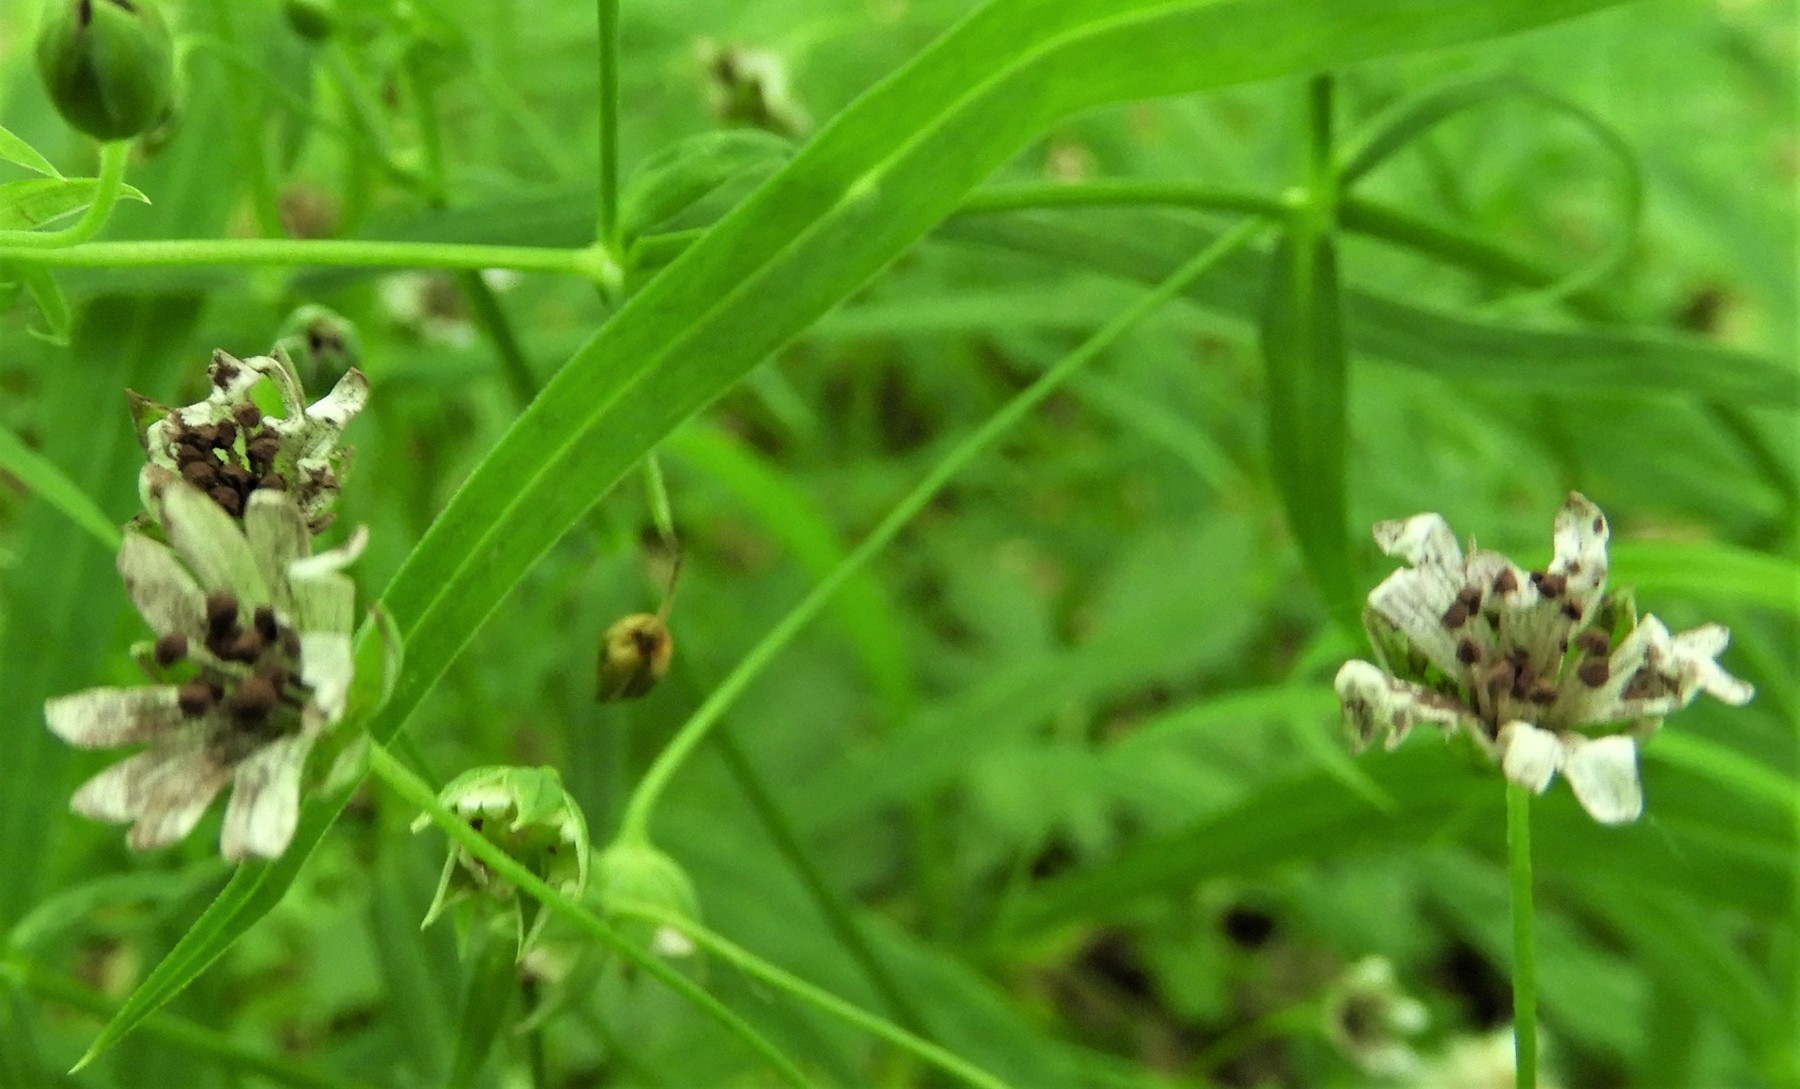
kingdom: Fungi
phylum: Basidiomycota
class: Microbotryomycetes
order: Microbotryales
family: Microbotryaceae
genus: Microbotryum
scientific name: Microbotryum stellariae
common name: fladstjerne-støvbladrust
